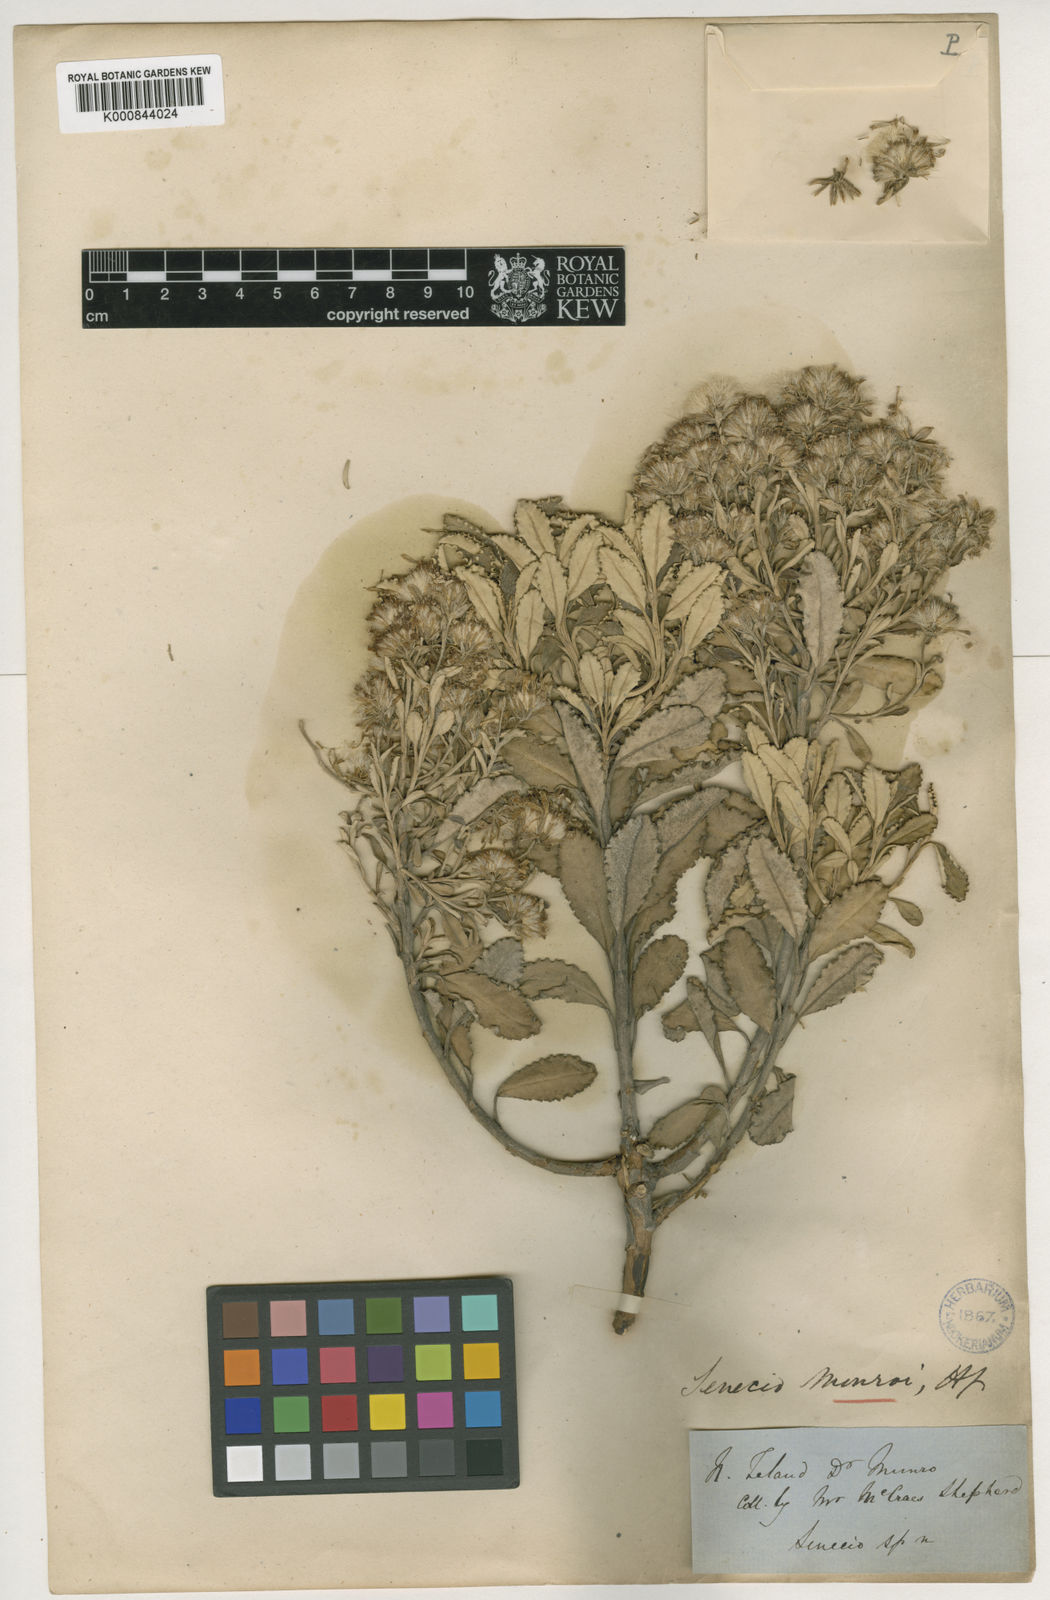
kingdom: Plantae
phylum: Tracheophyta
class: Magnoliopsida
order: Asterales
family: Asteraceae
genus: Brachyglottis
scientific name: Brachyglottis monroi
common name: Monro's ragwort
